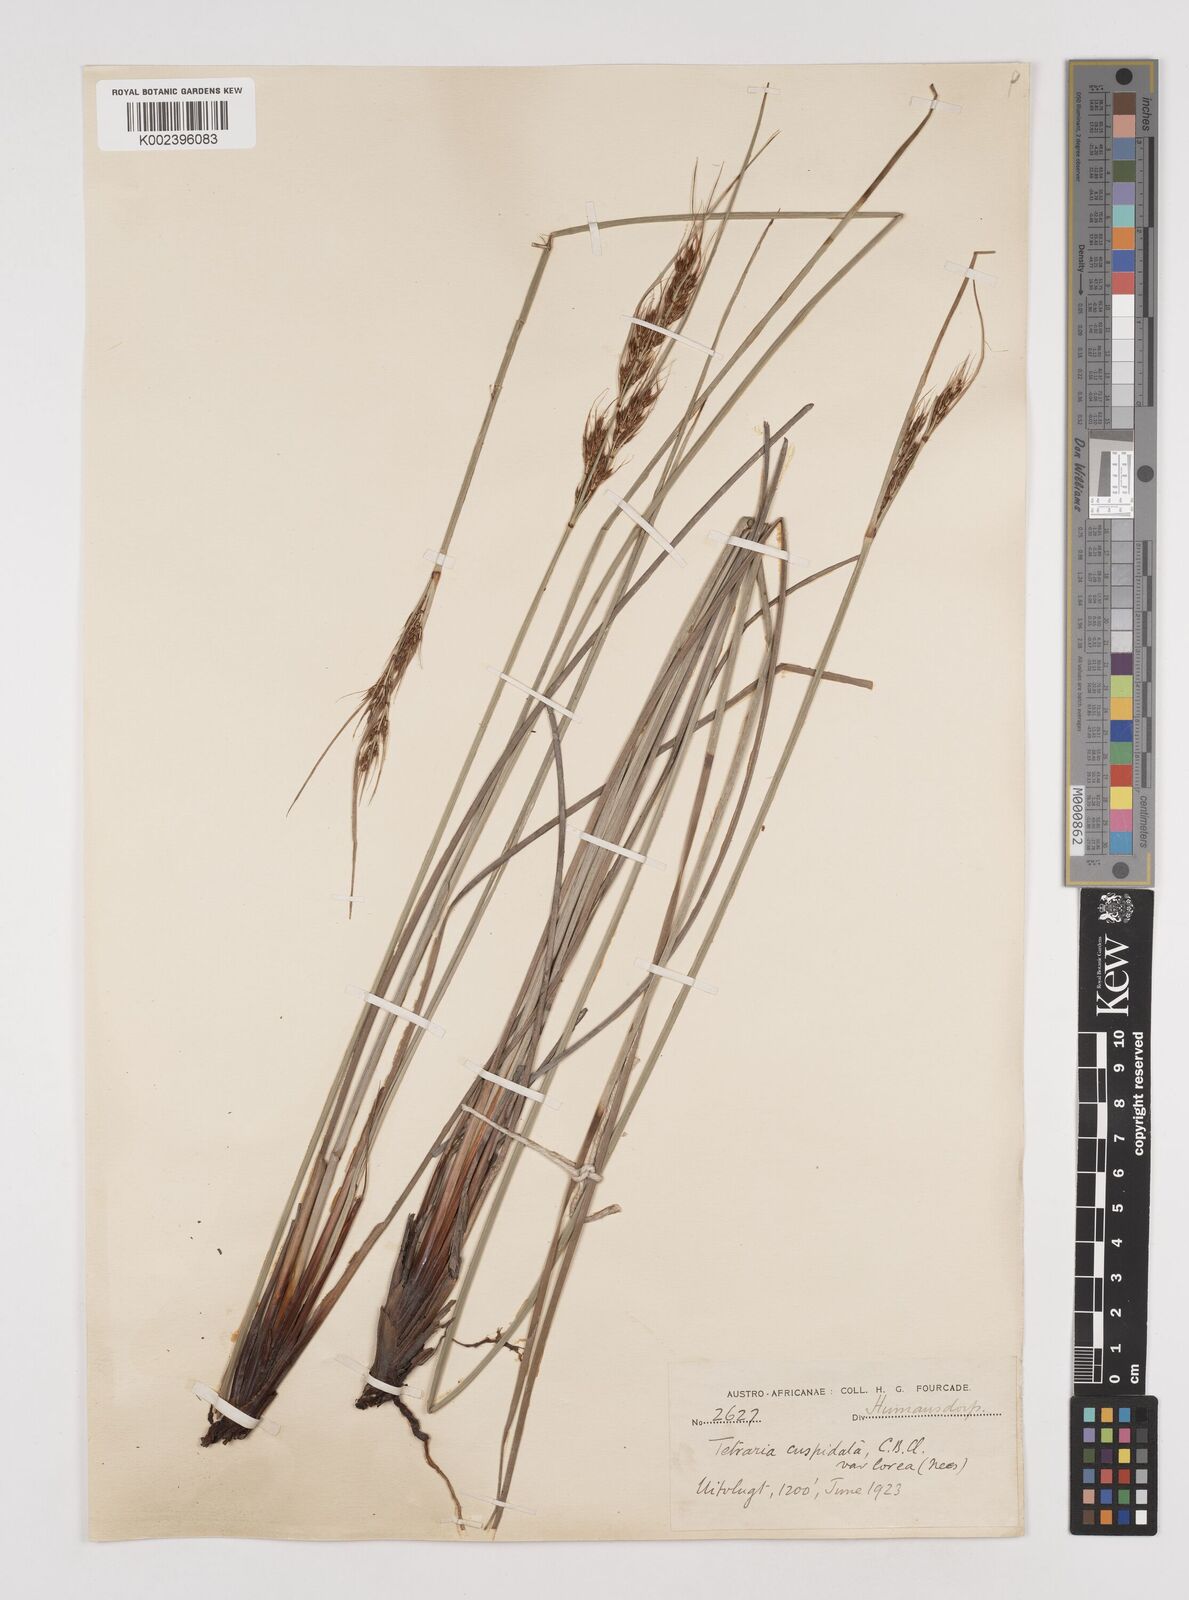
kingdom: Plantae
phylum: Tracheophyta
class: Liliopsida
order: Poales
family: Cyperaceae
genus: Schoenus
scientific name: Schoenus cuspidatus
